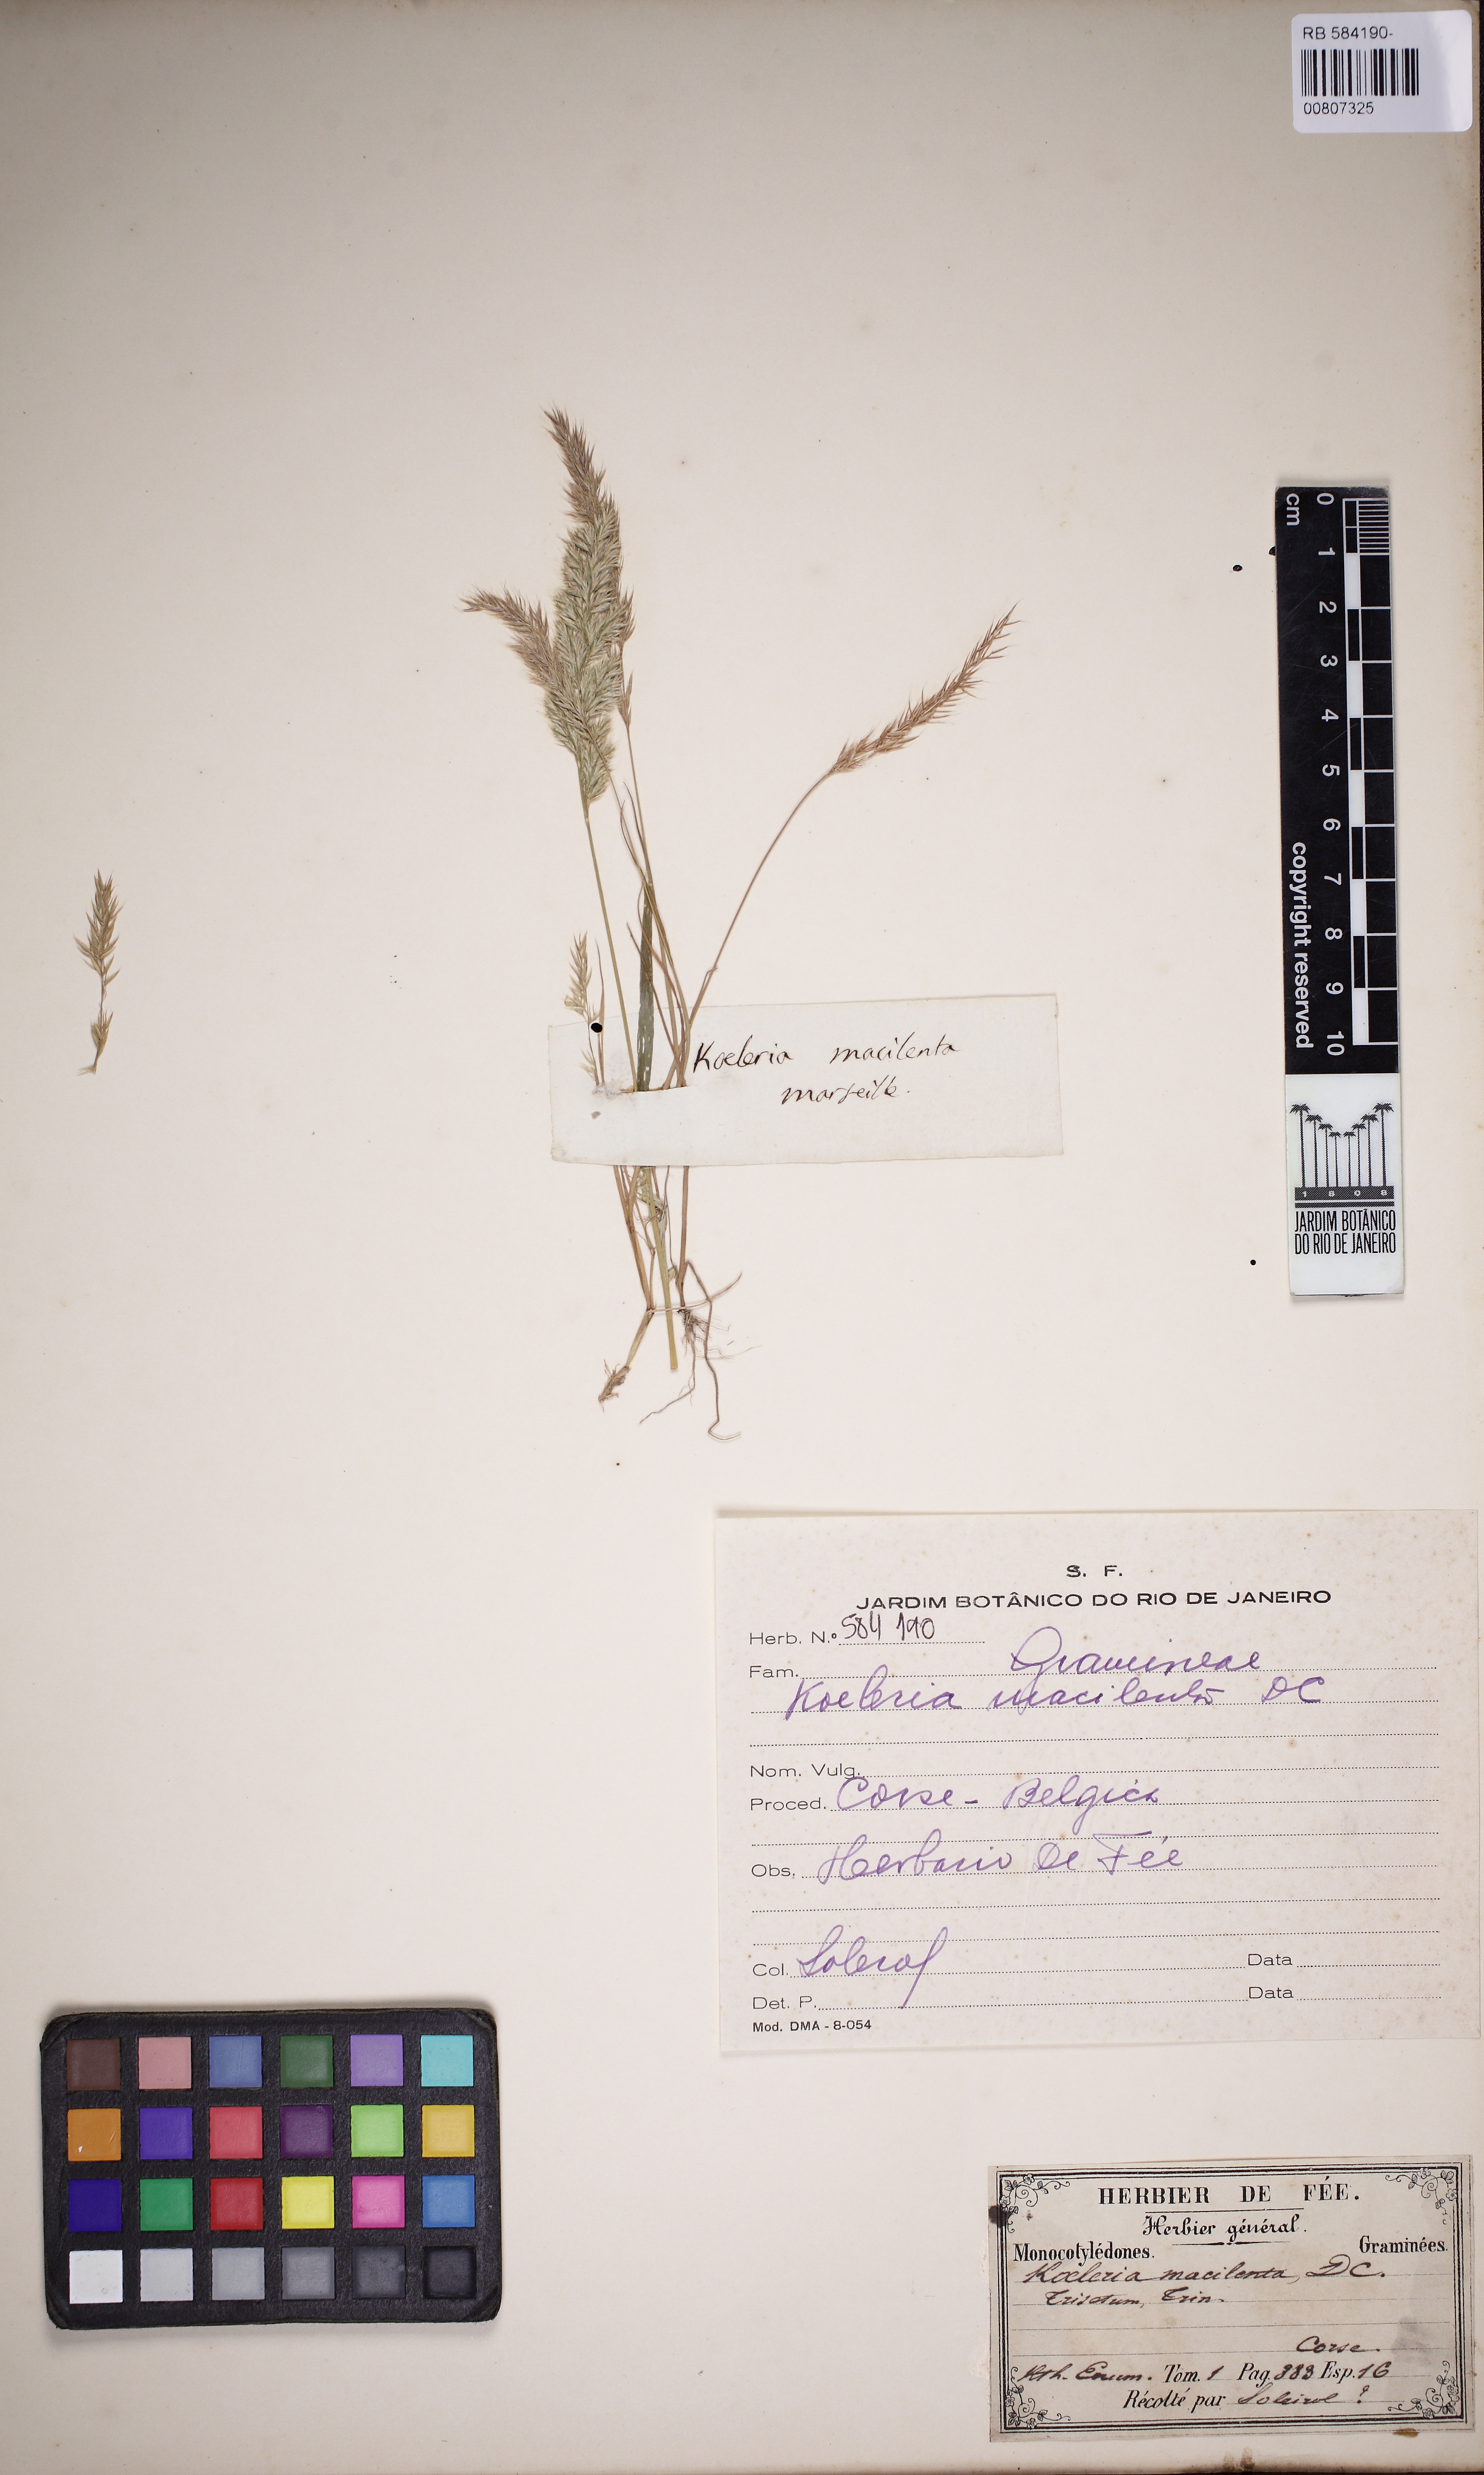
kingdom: Plantae
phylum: Tracheophyta
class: Liliopsida
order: Poales
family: Poaceae
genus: Avellinia
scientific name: Avellinia festucoides
